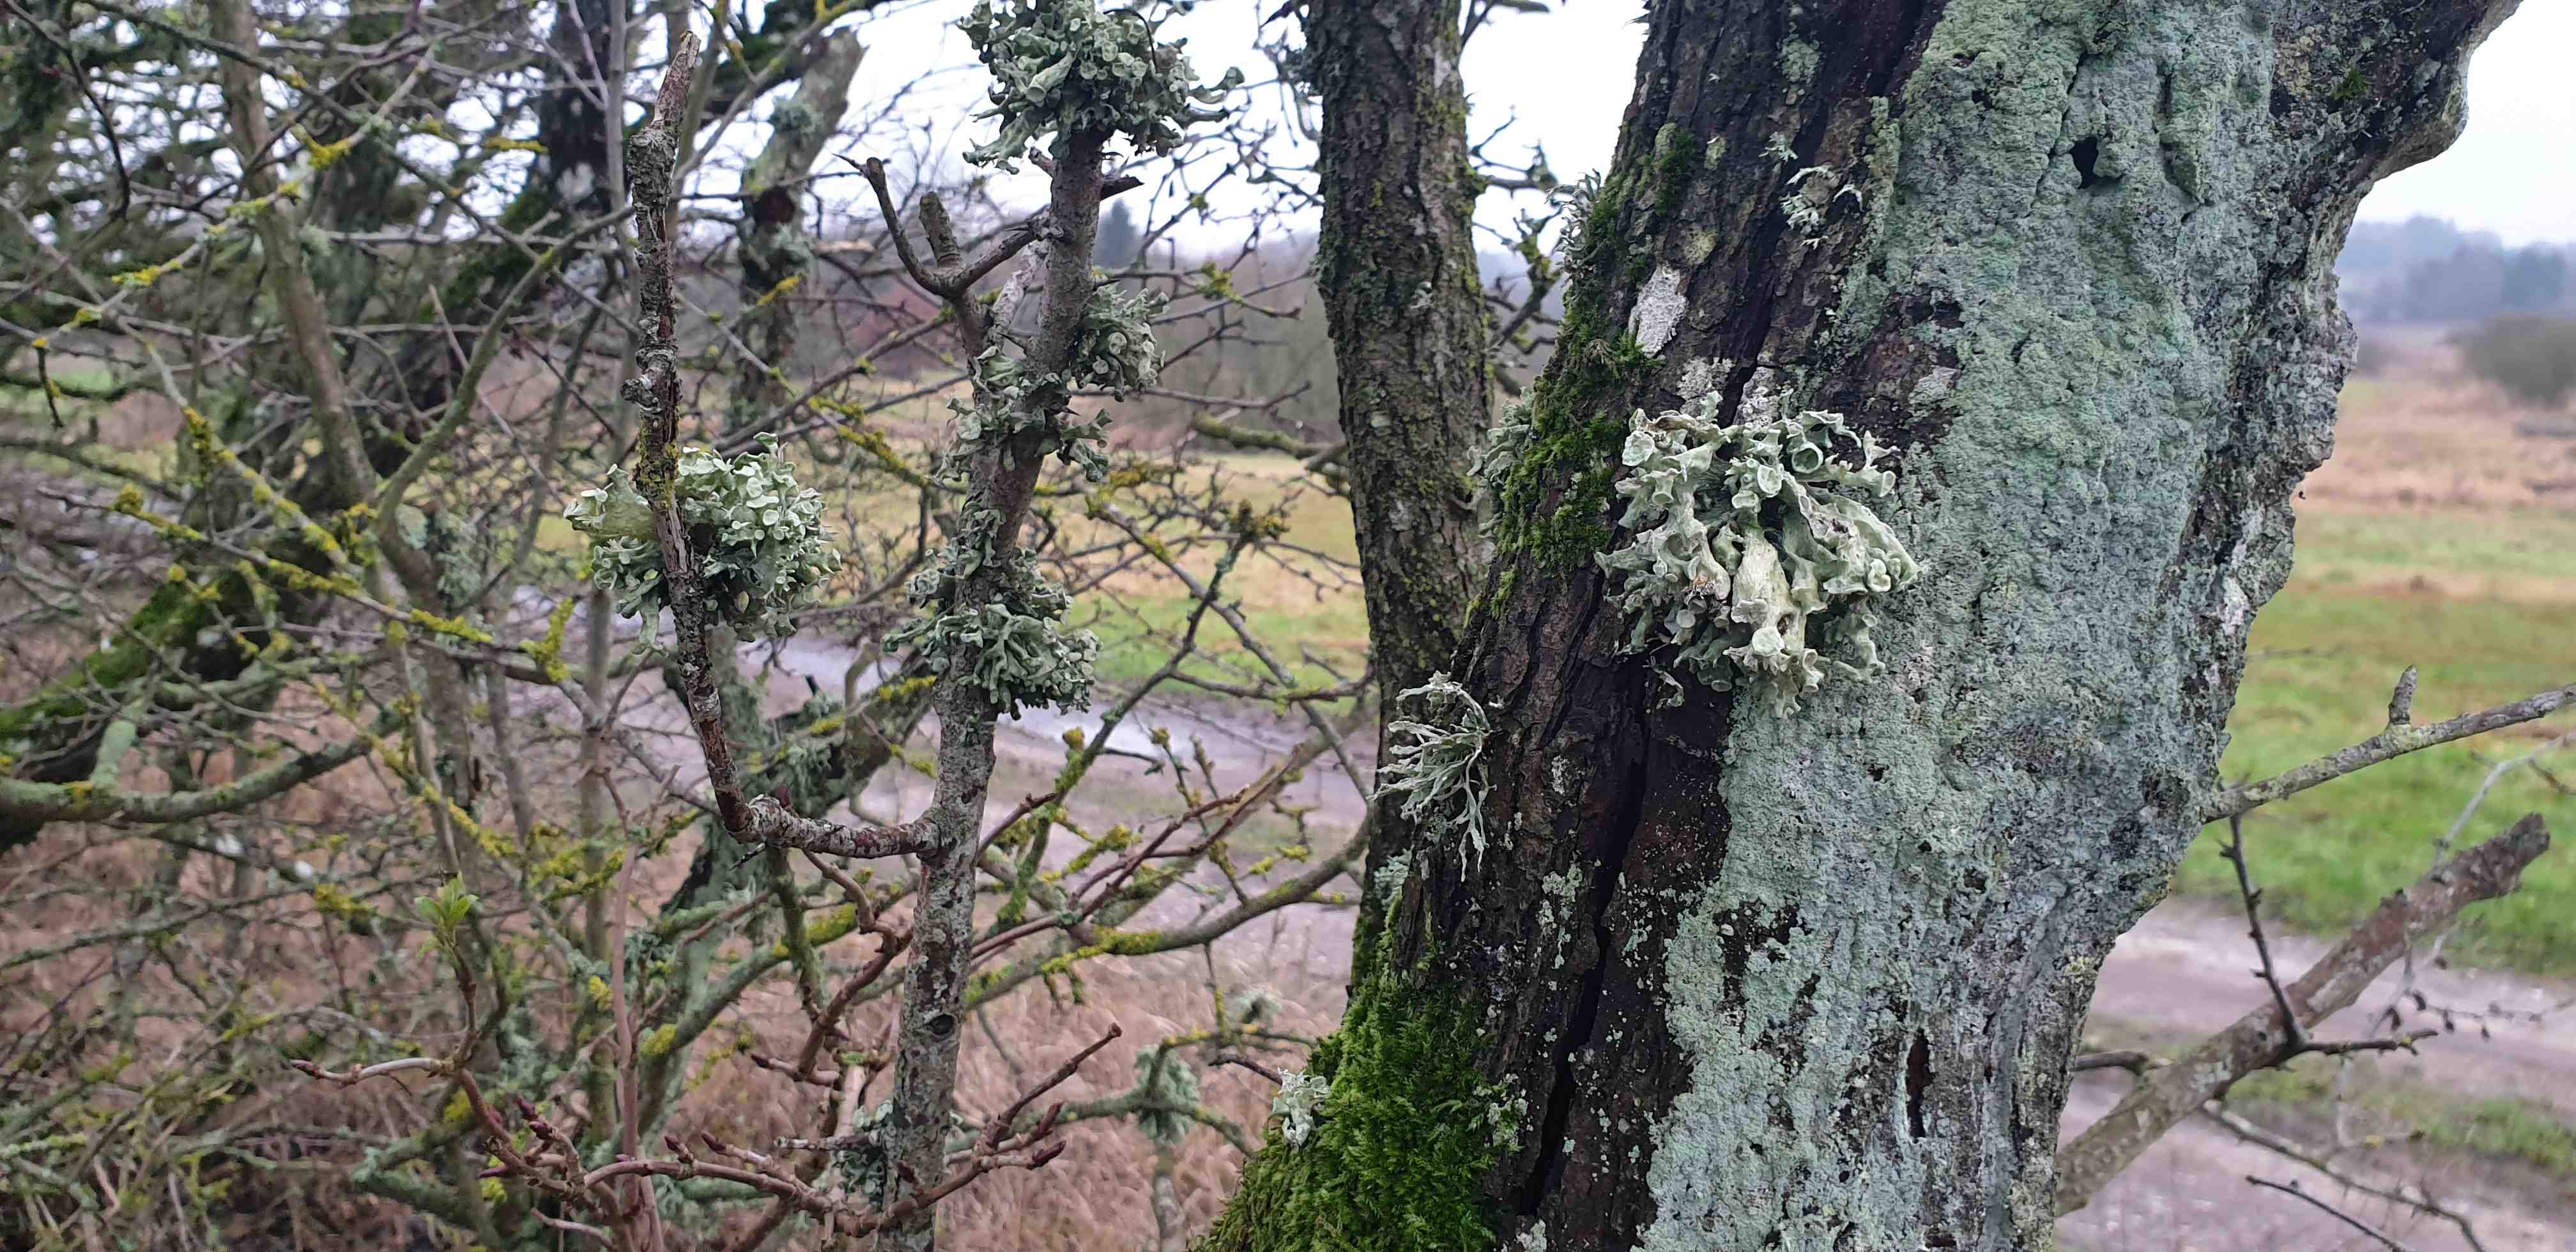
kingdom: Fungi
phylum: Ascomycota
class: Lecanoromycetes
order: Lecanorales
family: Ramalinaceae
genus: Ramalina
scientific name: Ramalina fastigiata
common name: tue-grenlav
